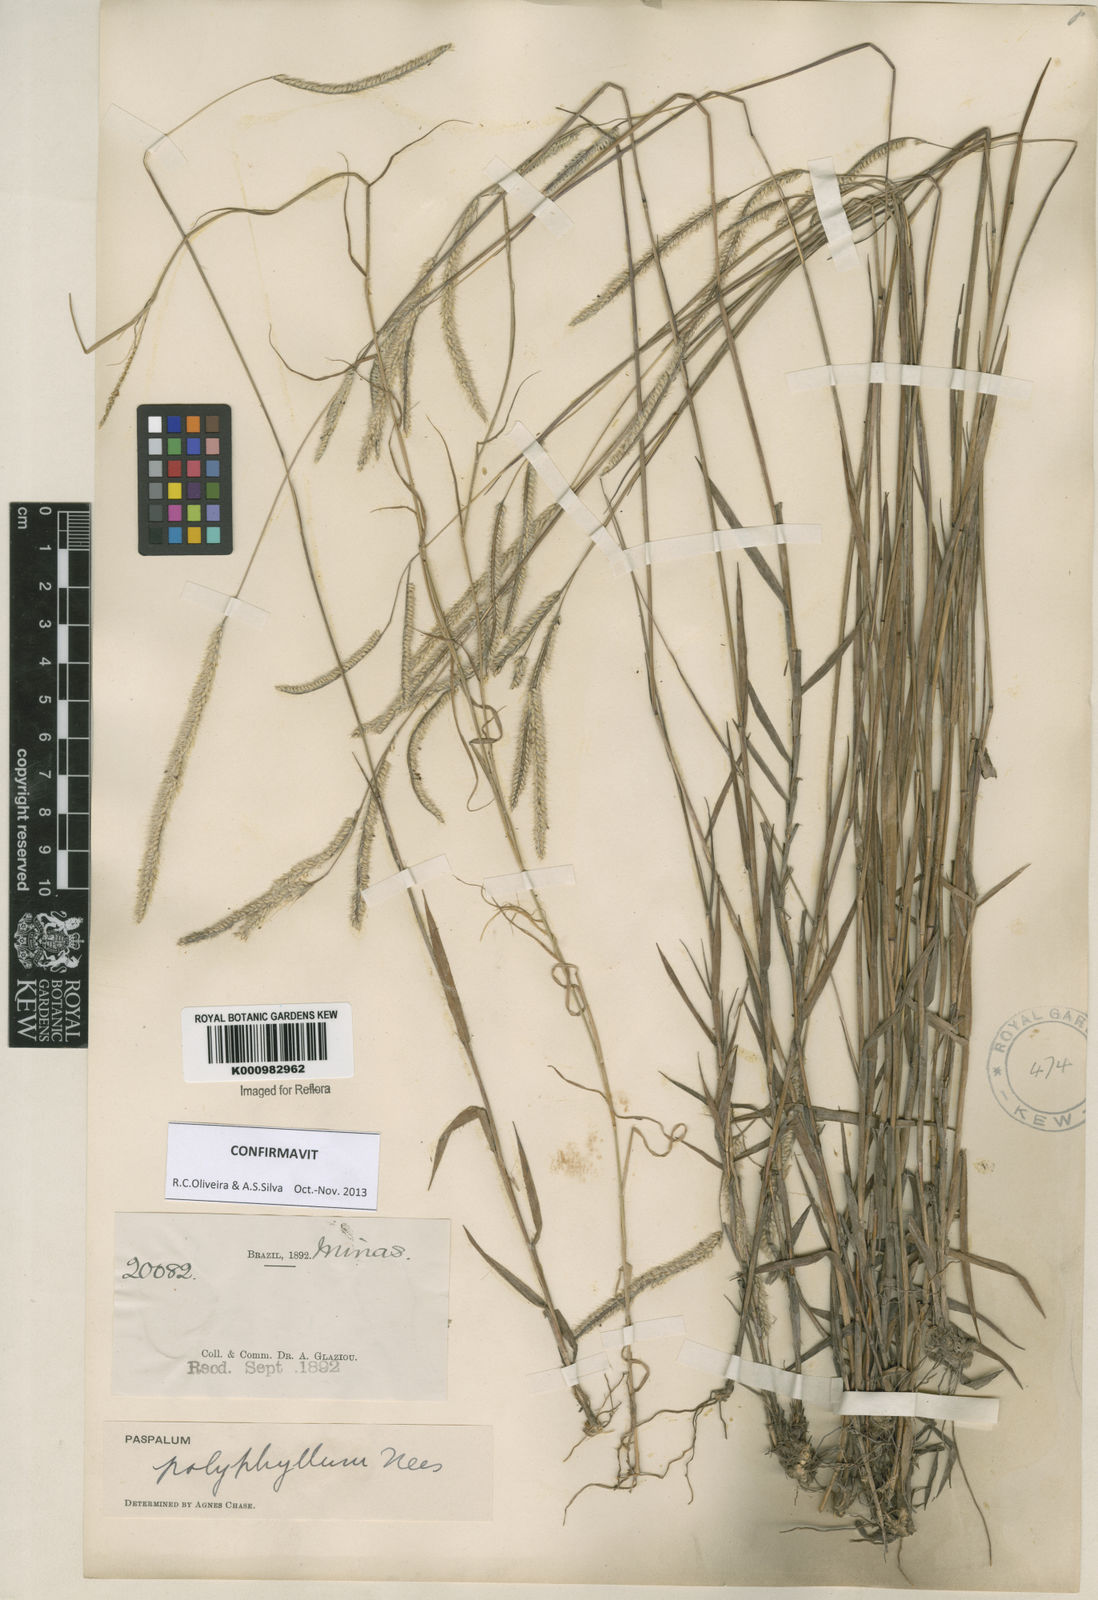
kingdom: Plantae
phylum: Tracheophyta
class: Liliopsida
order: Poales
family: Poaceae
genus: Paspalum
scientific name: Paspalum
